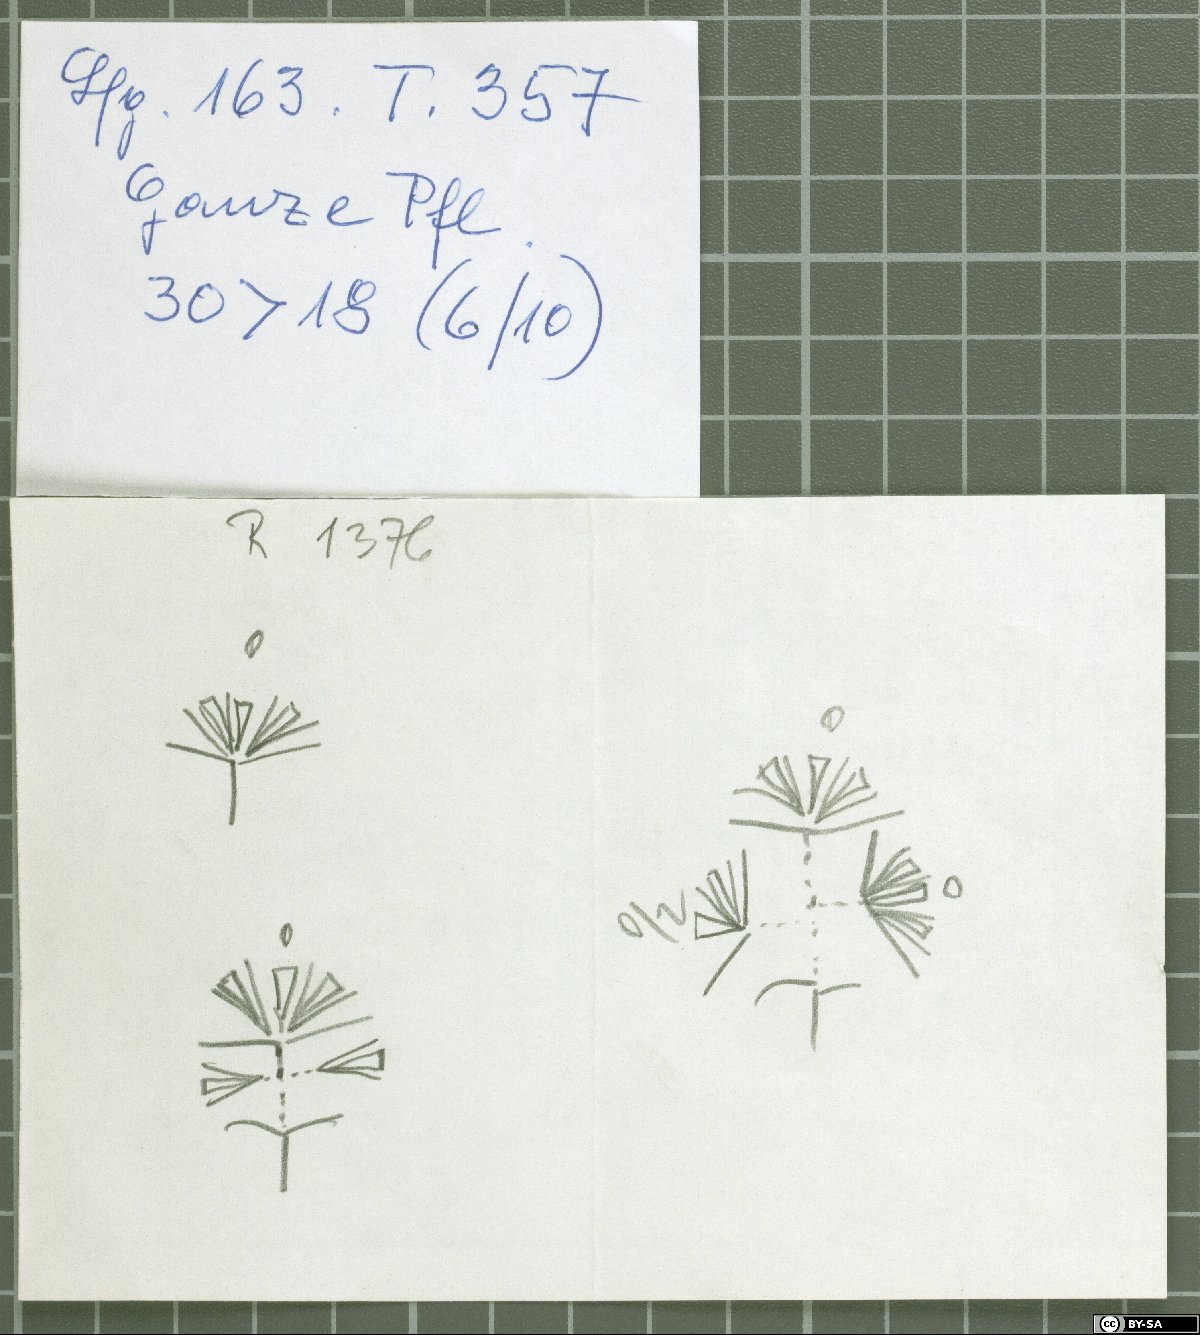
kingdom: Plantae
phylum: Tracheophyta
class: Magnoliopsida
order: Caryophyllales
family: Caryophyllaceae
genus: Acanthophyllum
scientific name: Acanthophyllum korshinskyi
